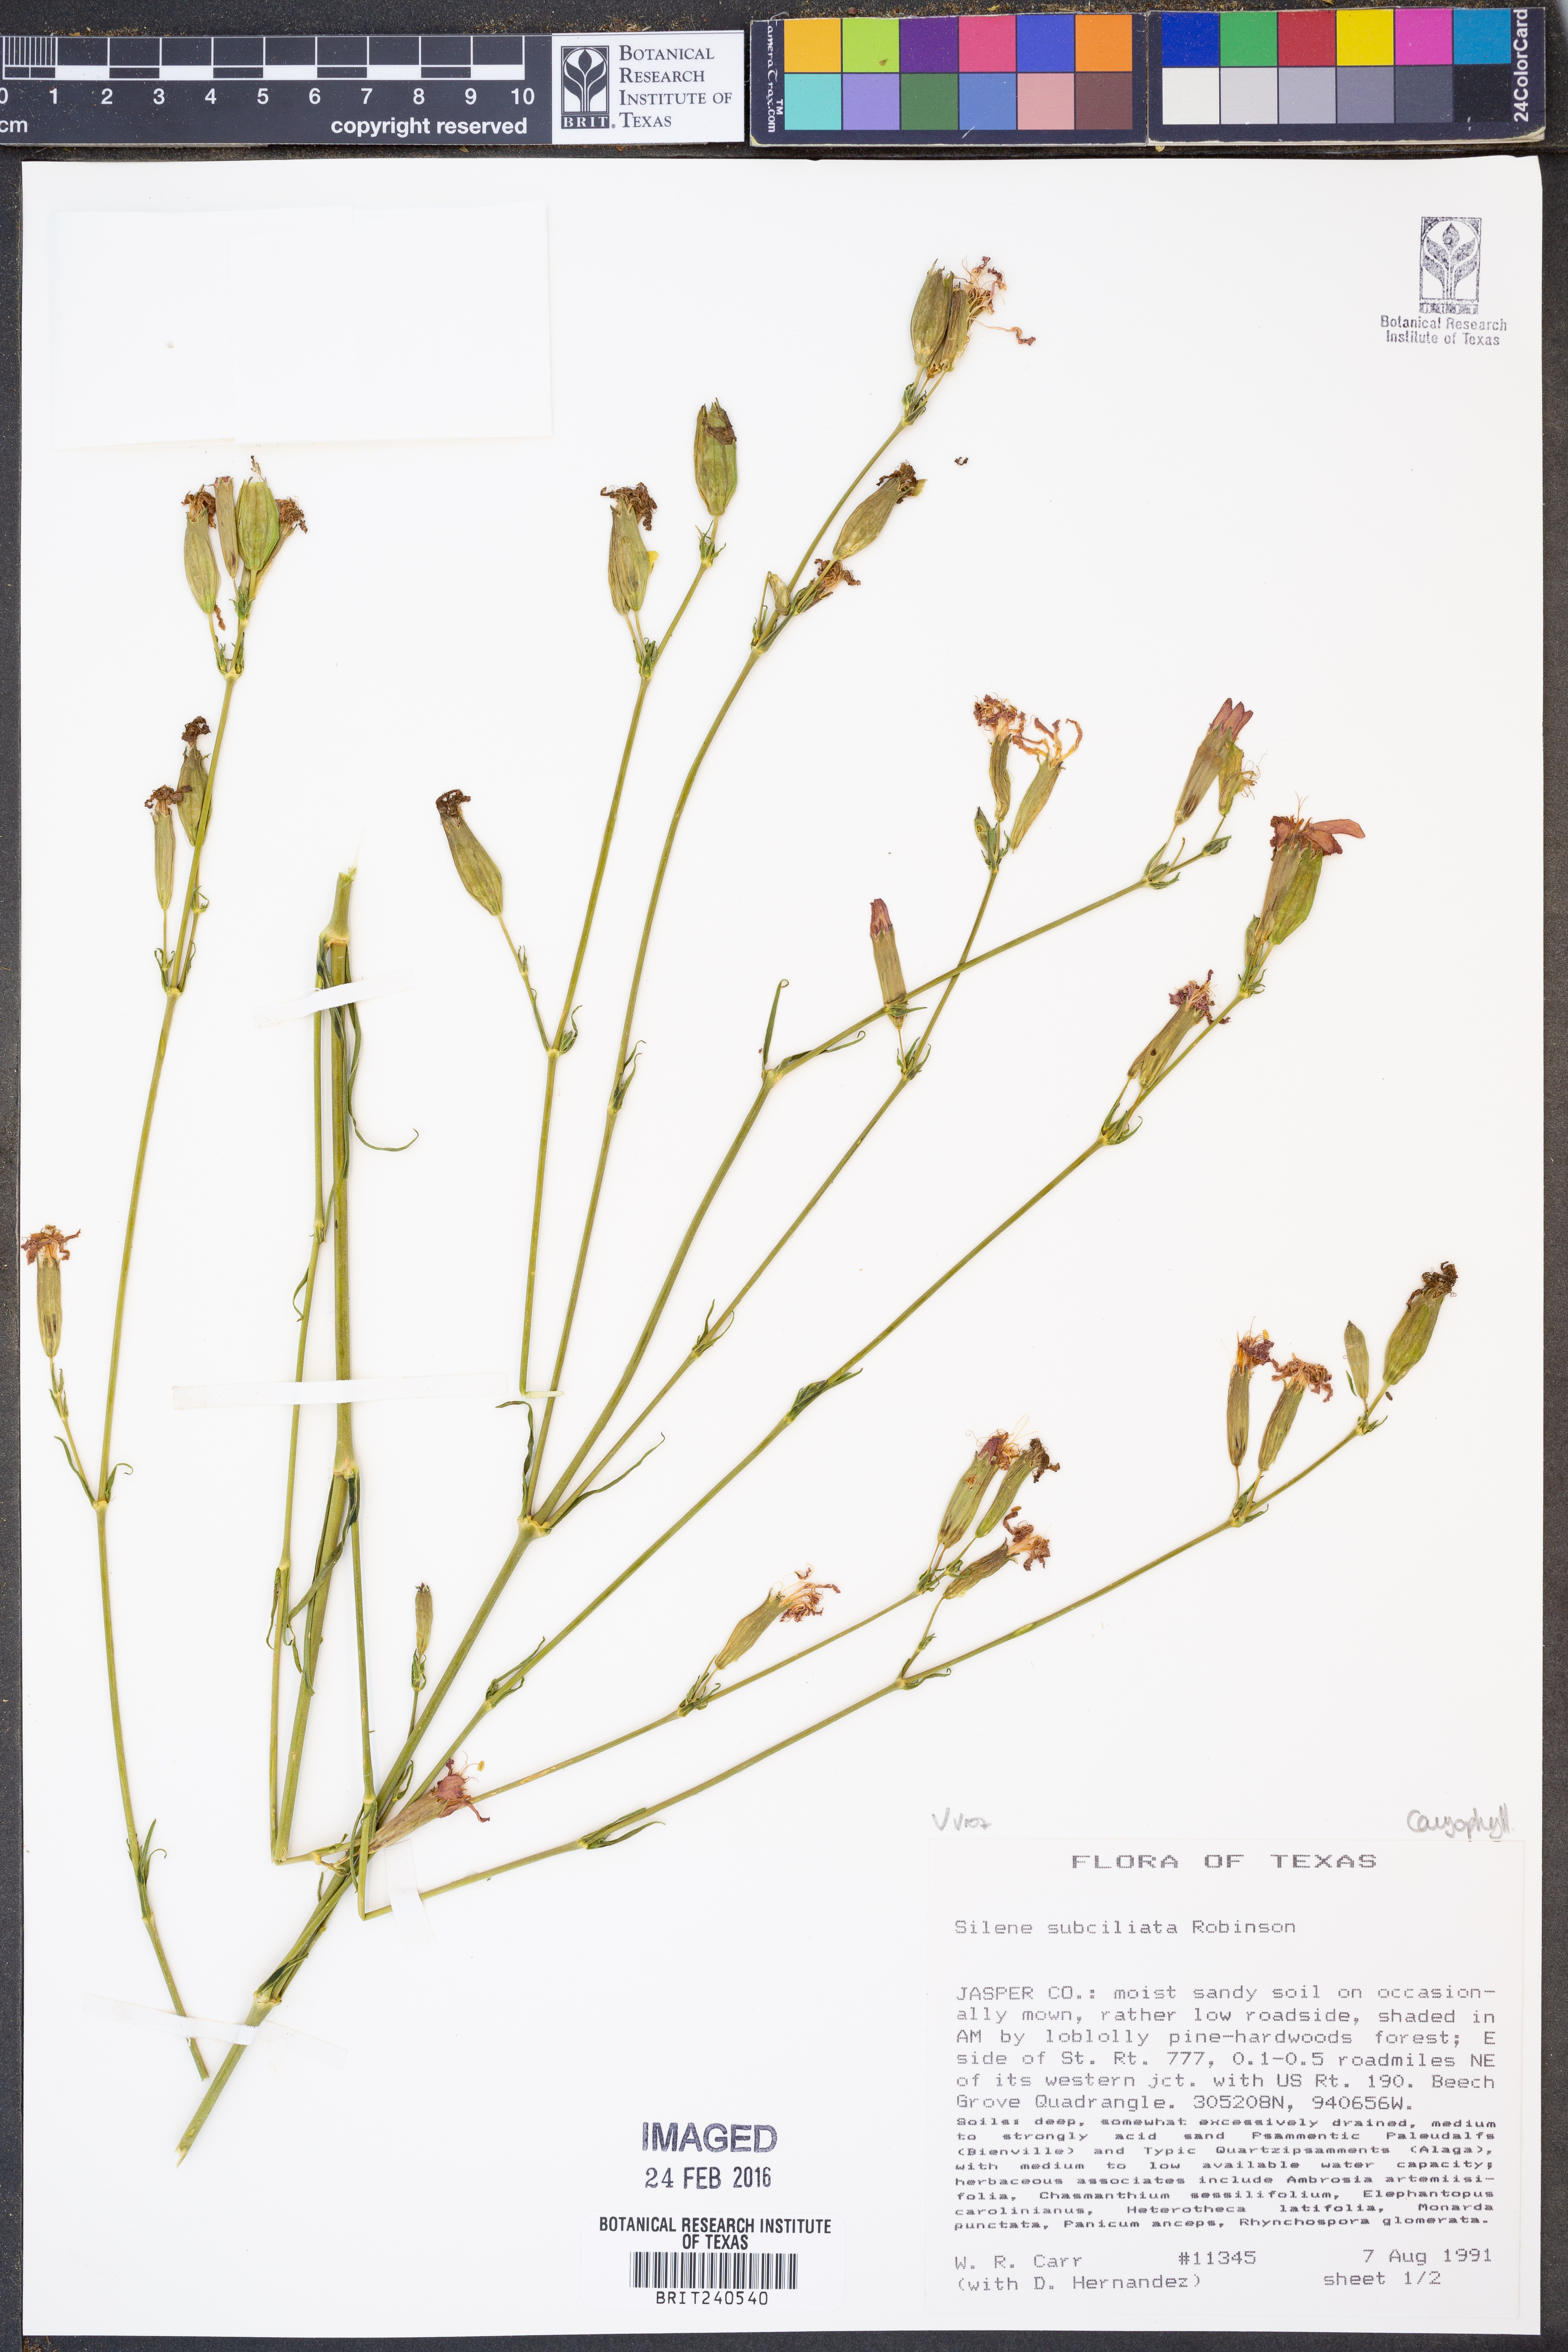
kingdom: Plantae
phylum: Tracheophyta
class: Magnoliopsida
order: Caryophyllales
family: Caryophyllaceae
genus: Silene
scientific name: Silene subciliata
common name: Prairie fire-pink
